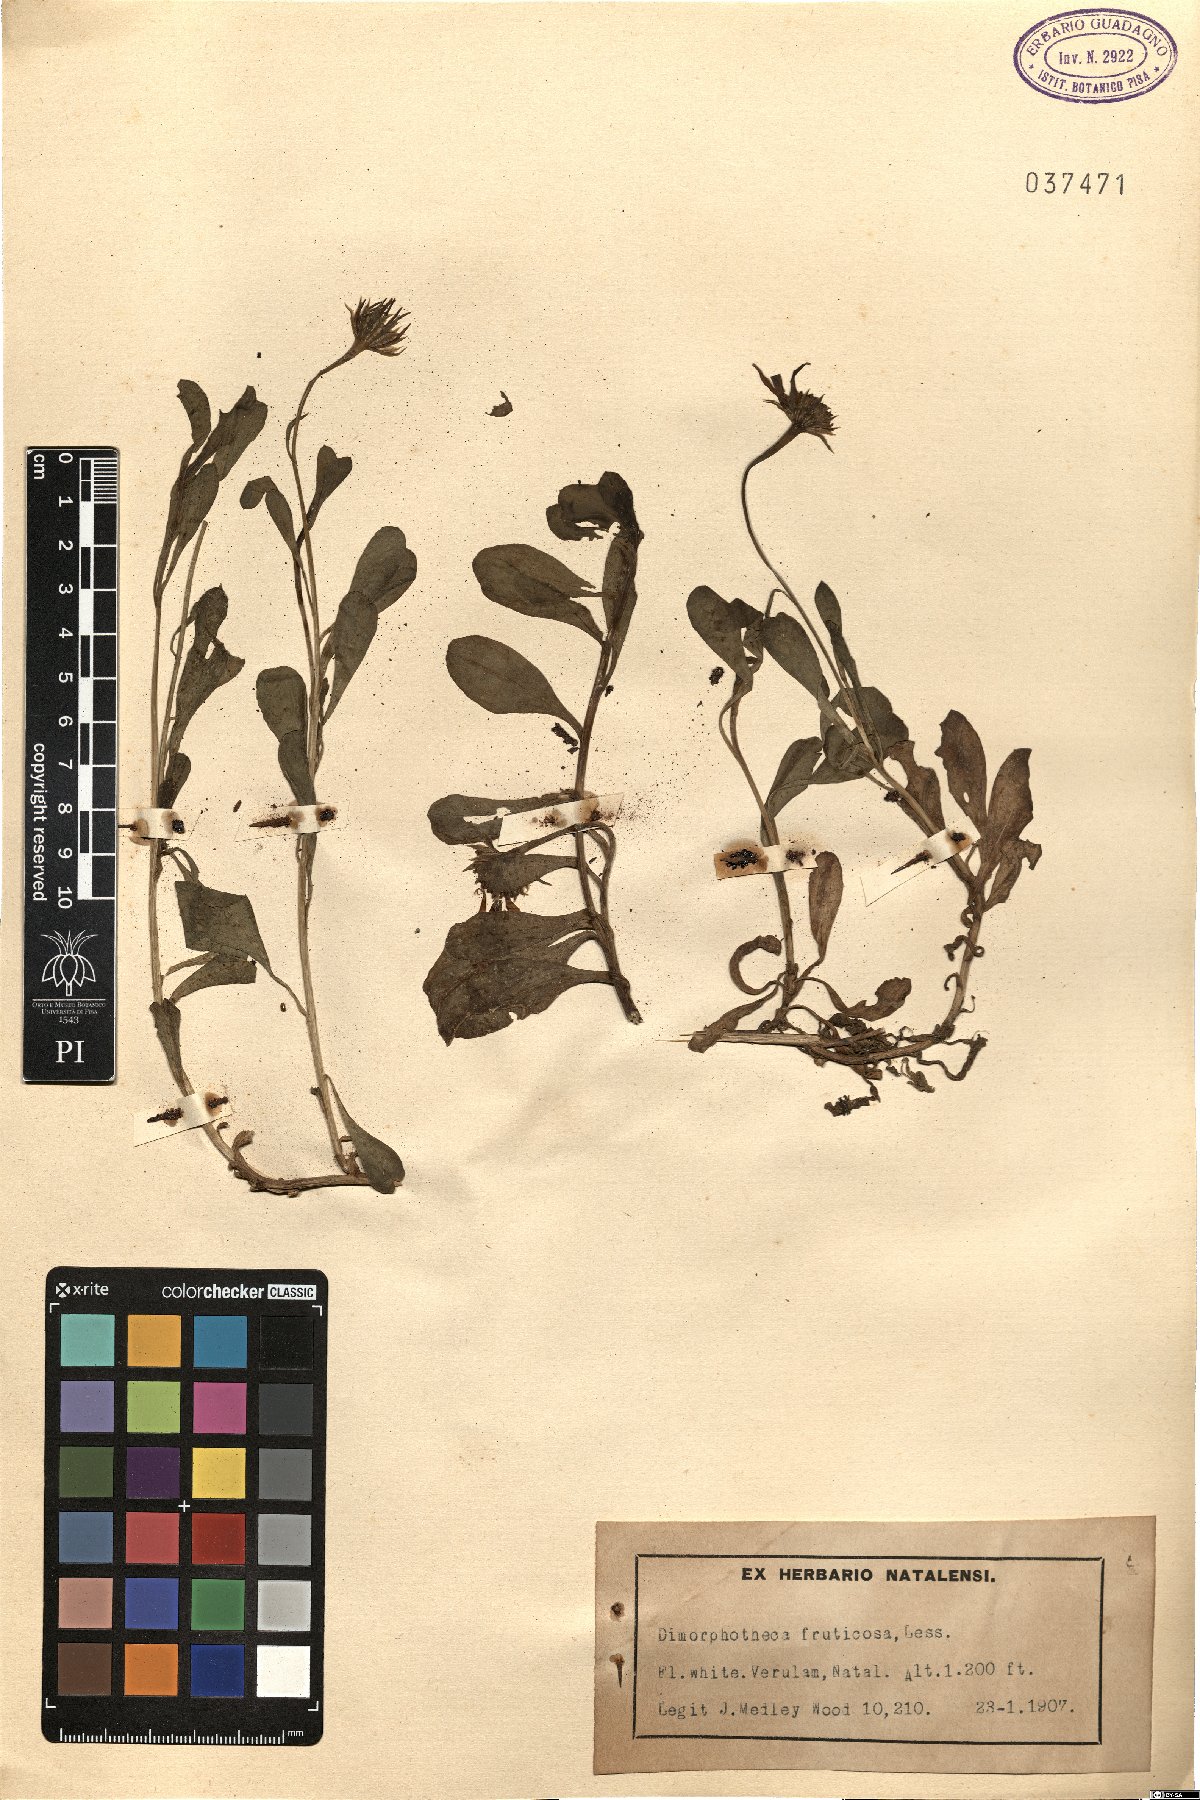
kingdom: Plantae
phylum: Tracheophyta
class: Magnoliopsida
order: Asterales
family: Asteraceae
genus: Dimorphotheca
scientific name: Dimorphotheca fruticosa
